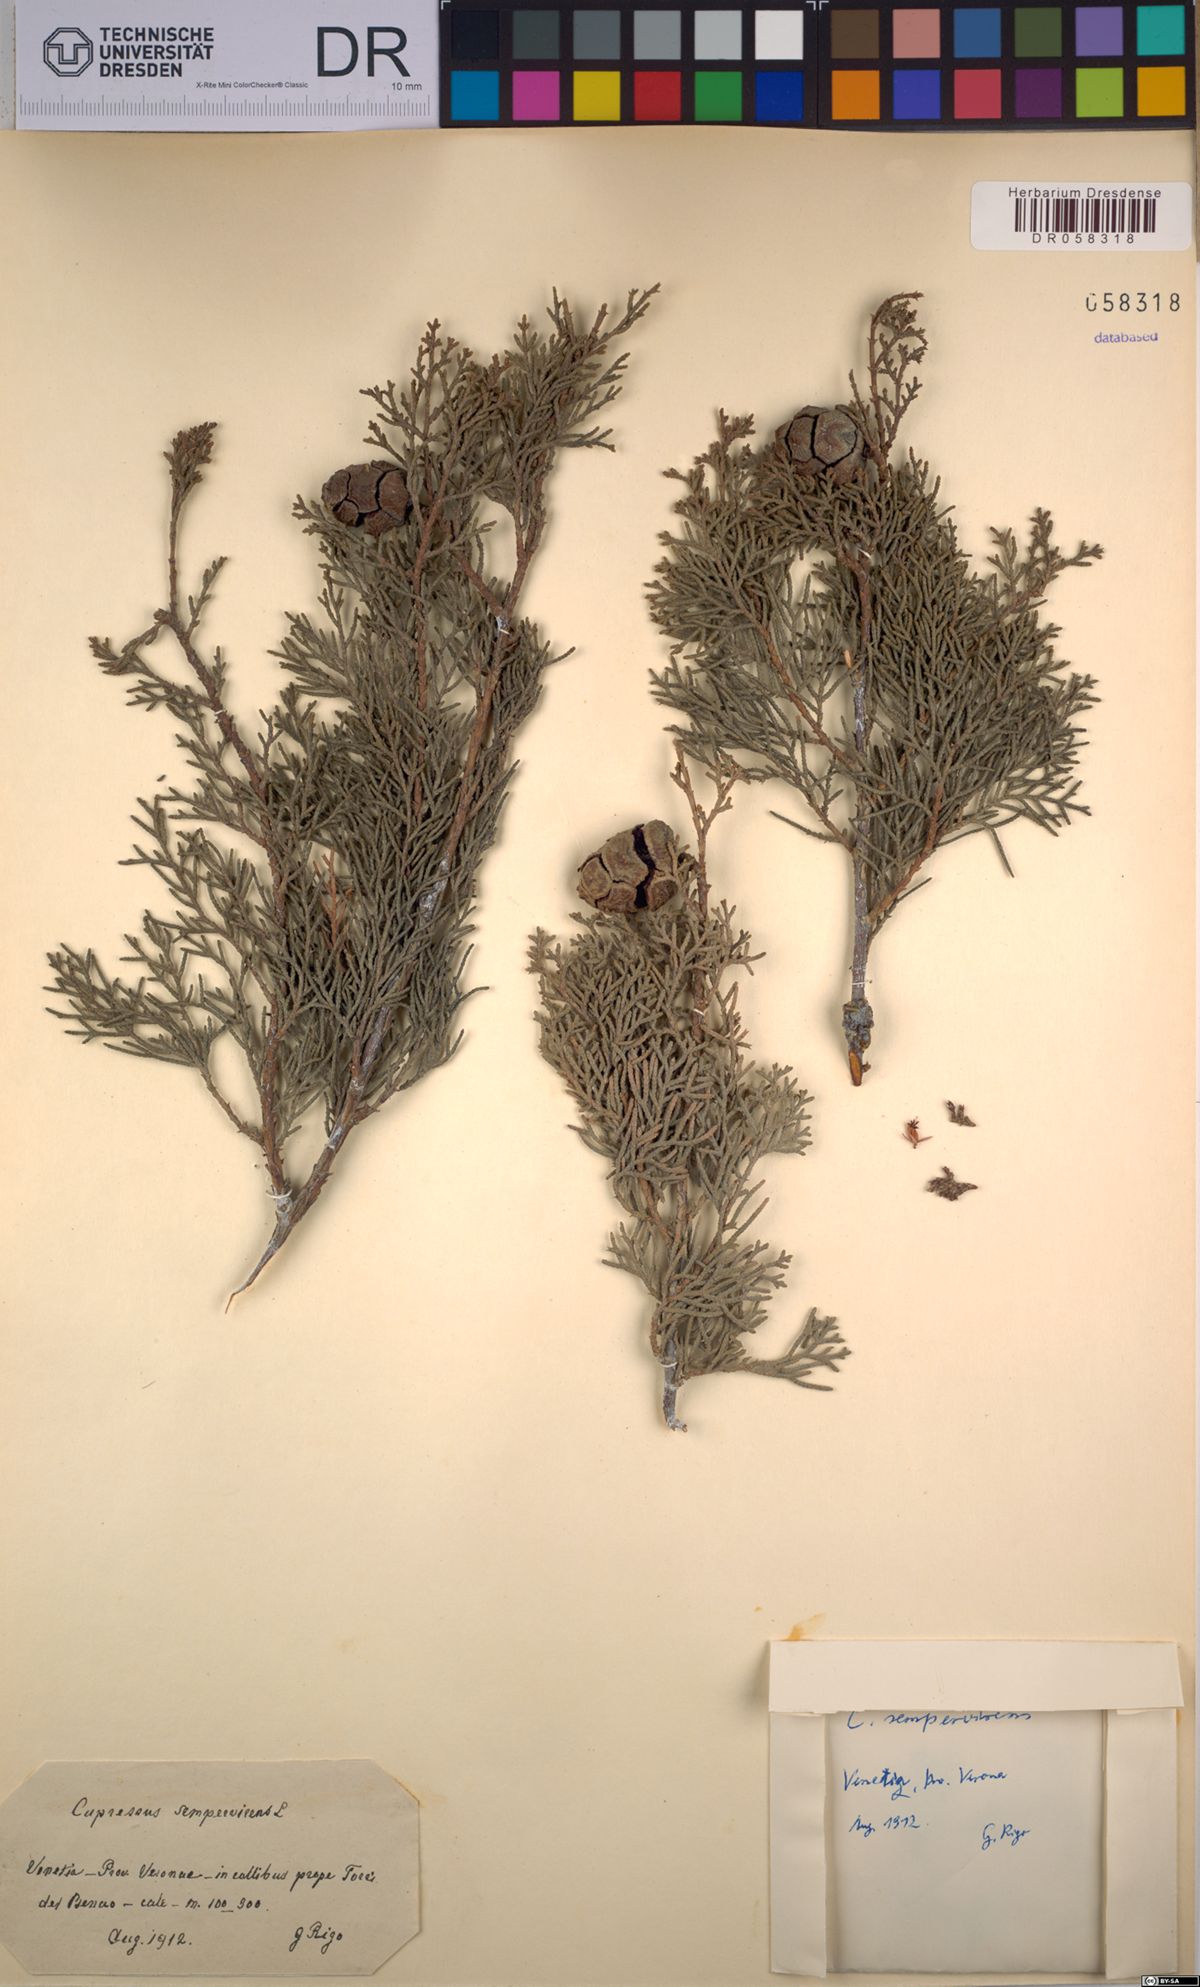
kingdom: Plantae
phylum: Tracheophyta
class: Pinopsida
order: Pinales
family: Cupressaceae
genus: Cupressus
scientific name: Cupressus sempervirens
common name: Italian cypress
